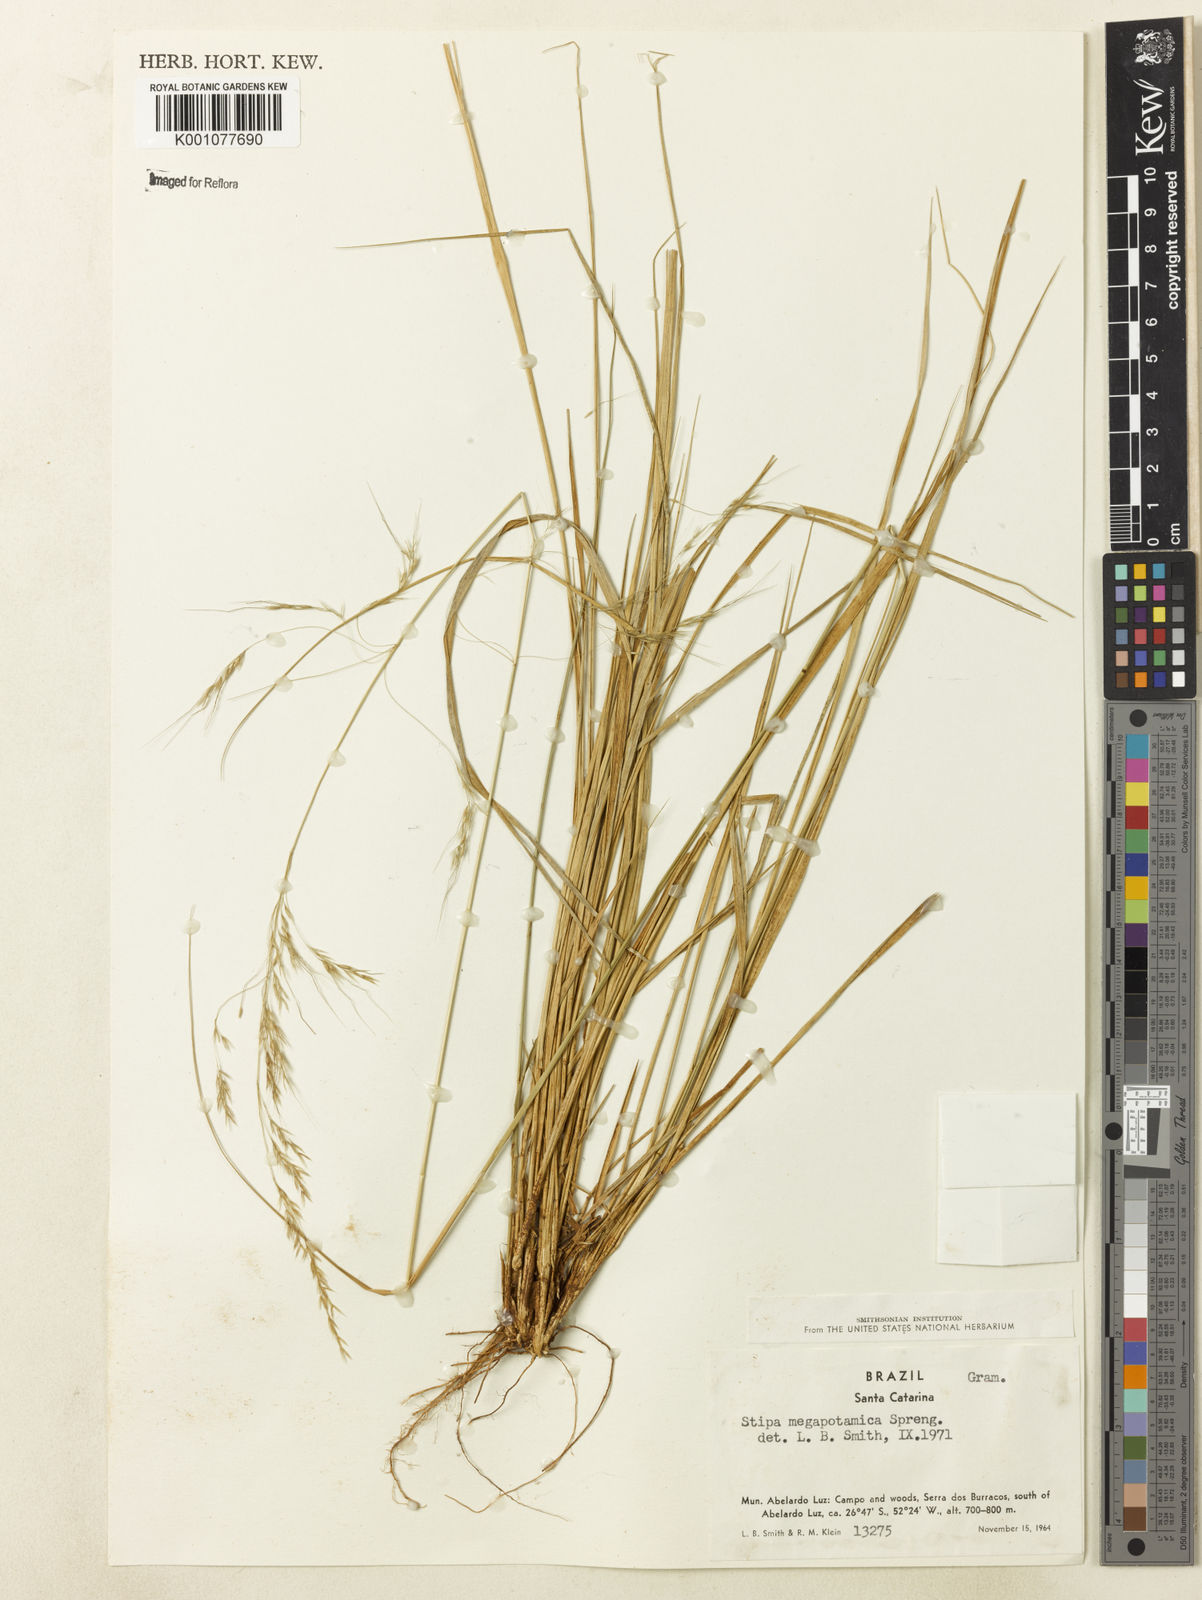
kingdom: Plantae
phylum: Tracheophyta
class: Liliopsida
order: Poales
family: Poaceae
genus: Jarava
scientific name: Jarava filifolia
